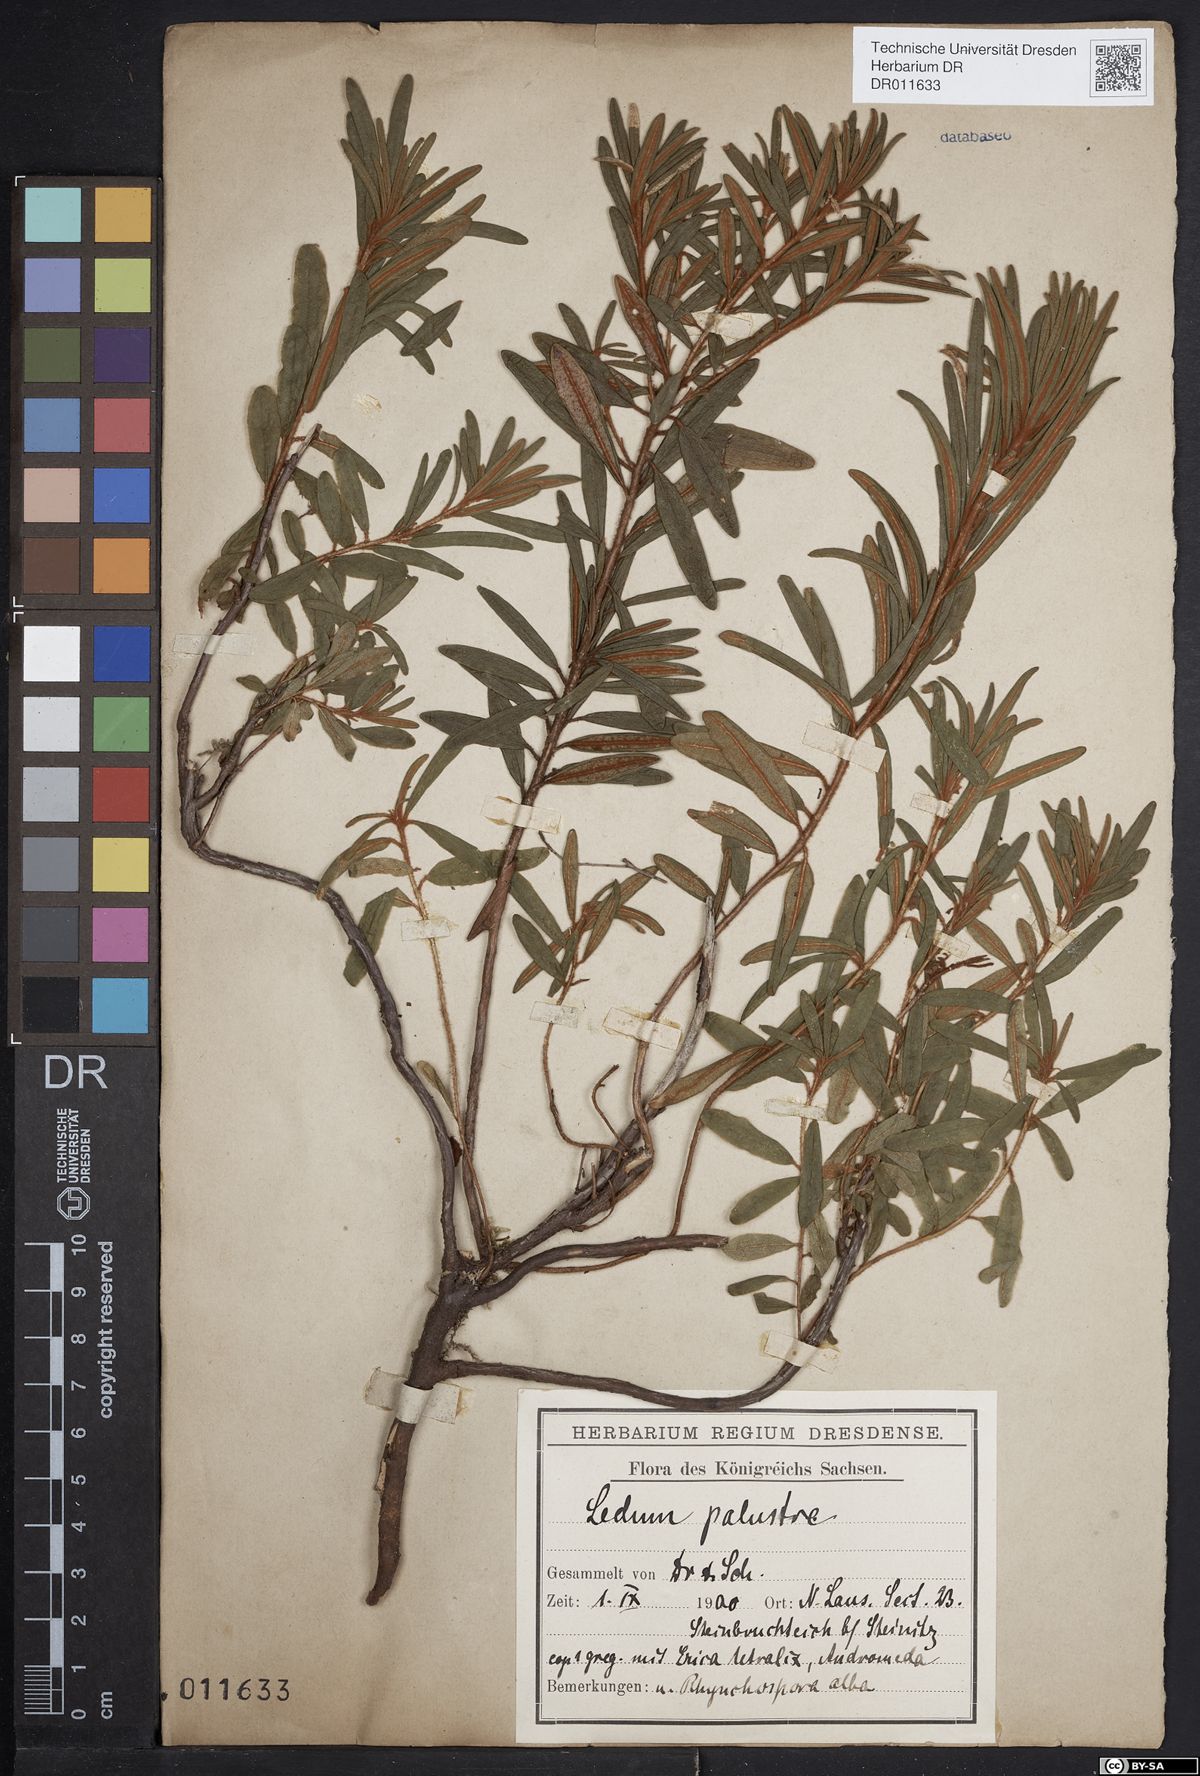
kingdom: Plantae
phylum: Tracheophyta
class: Magnoliopsida
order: Ericales
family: Ericaceae
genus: Rhododendron
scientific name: Rhododendron tomentosum
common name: Marsh labrador tea
